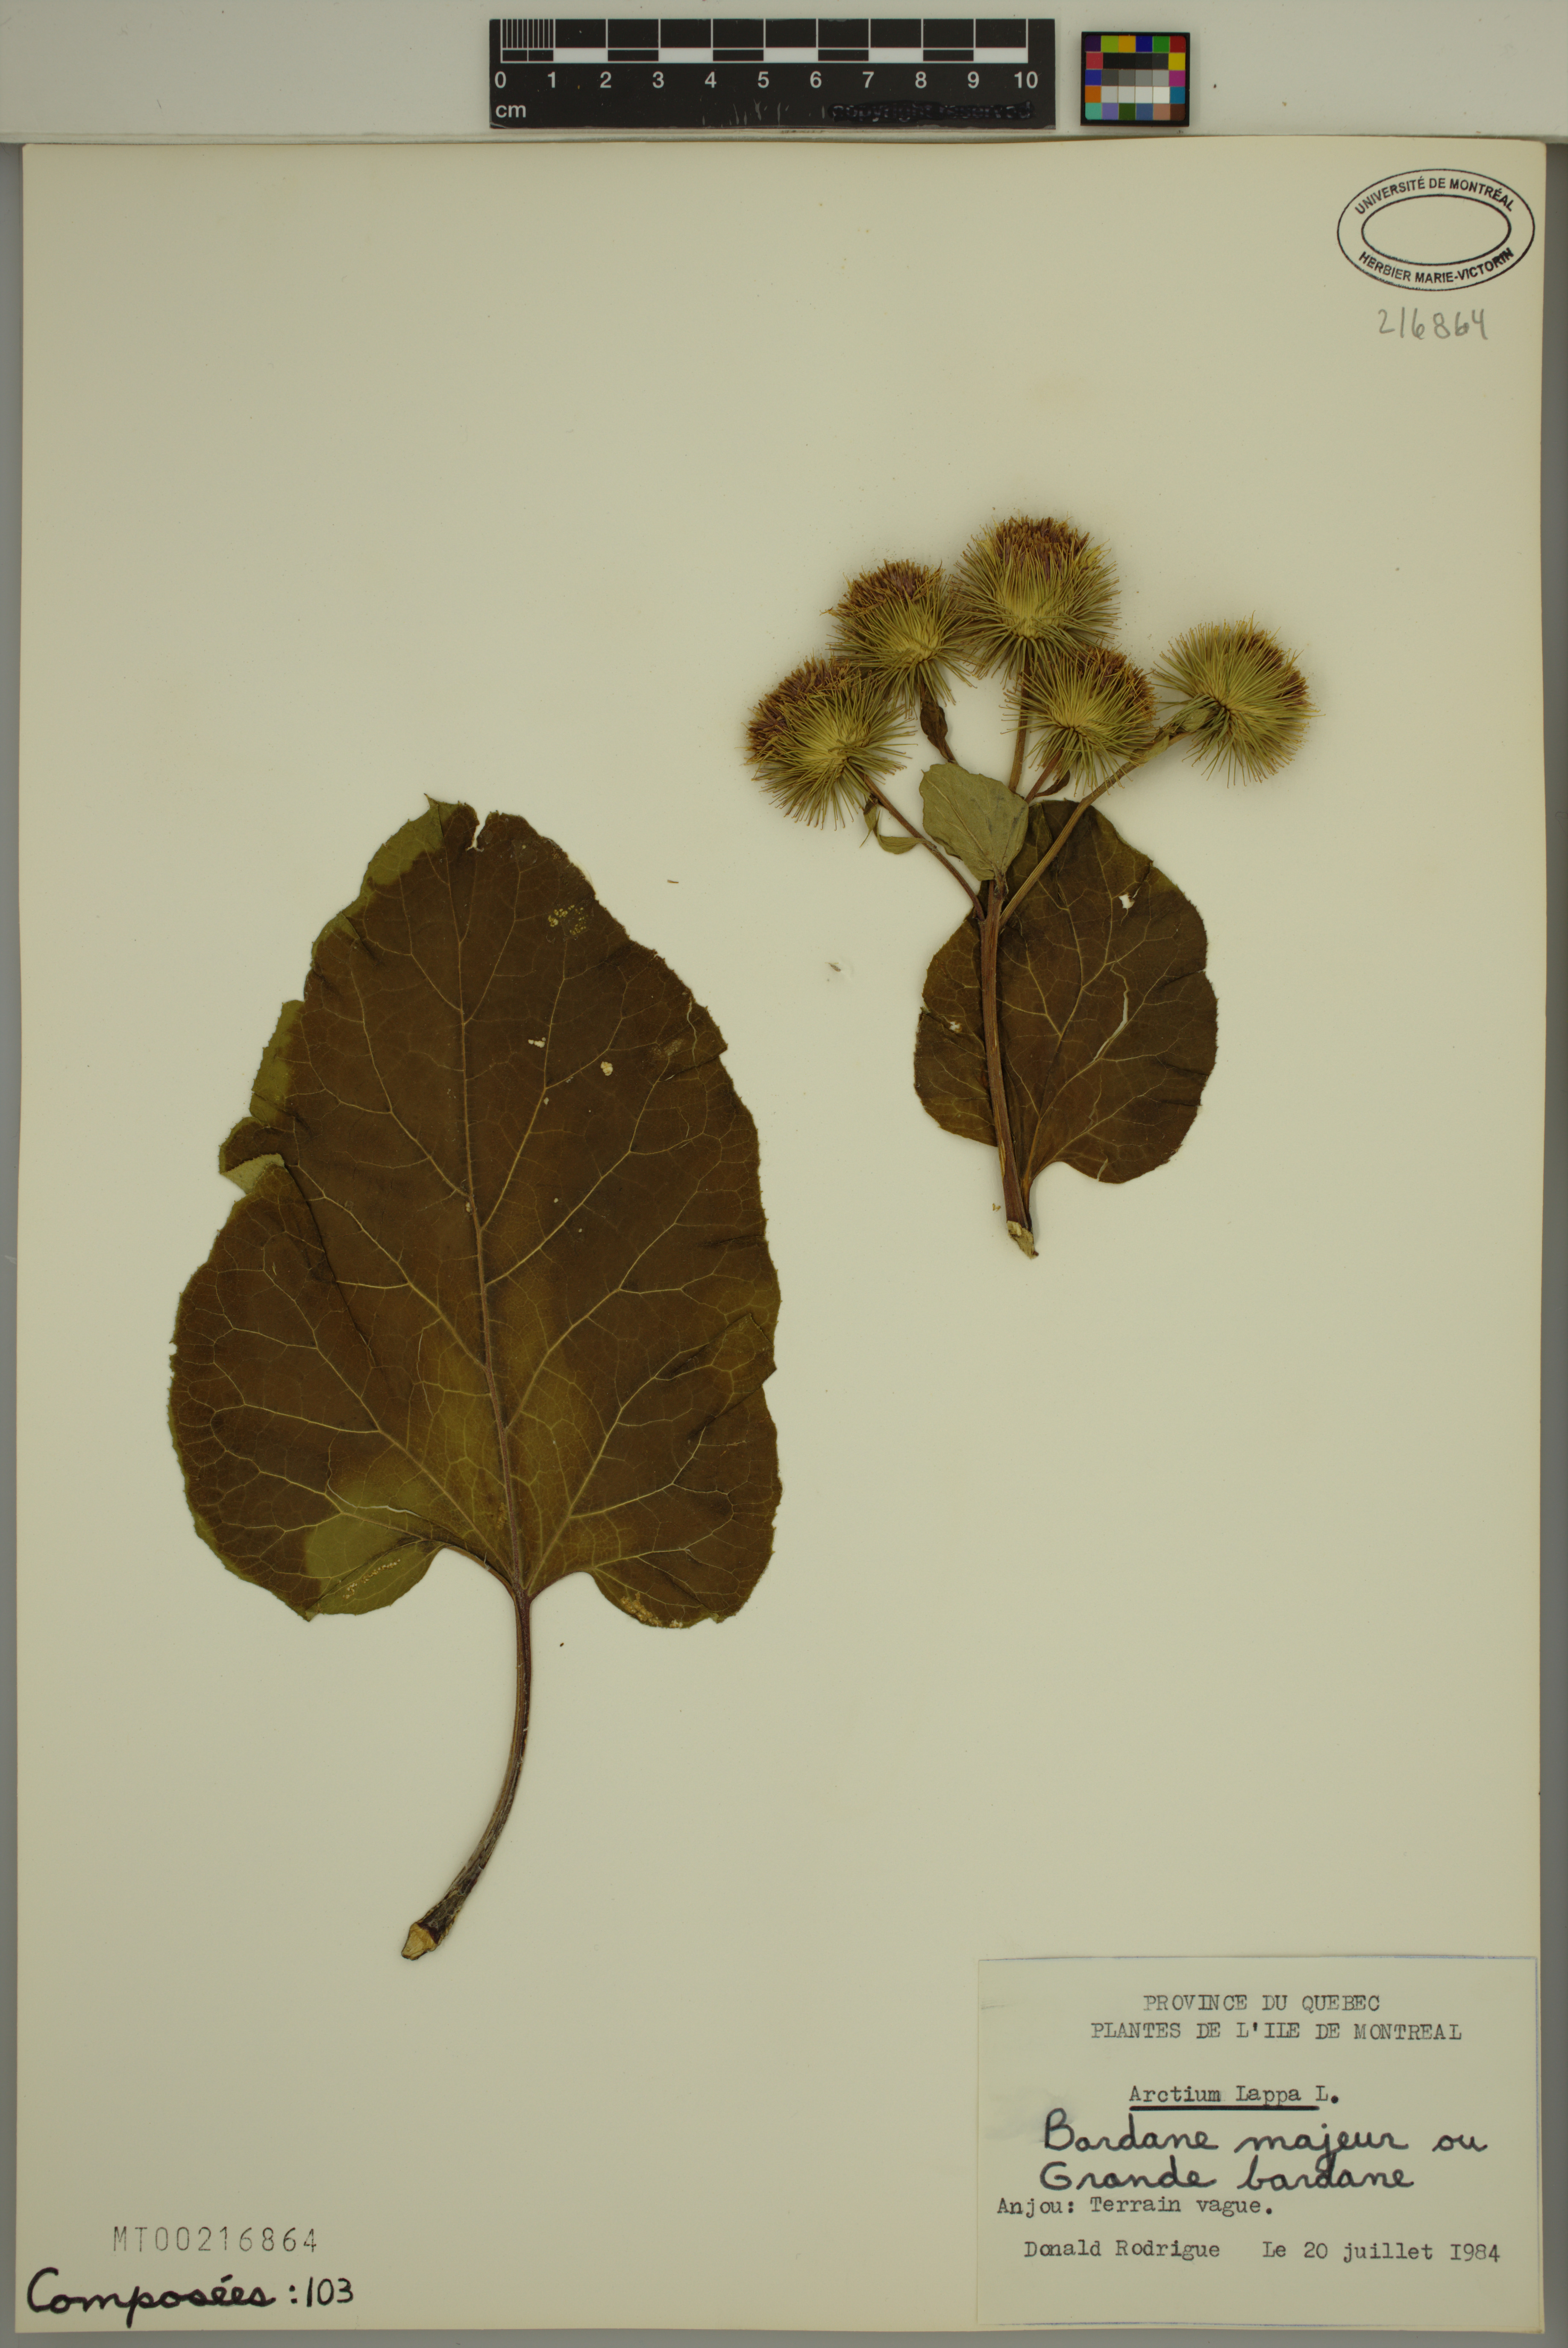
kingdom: Plantae
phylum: Tracheophyta
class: Magnoliopsida
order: Asterales
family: Asteraceae
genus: Arctium
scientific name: Arctium lappa
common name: Greater burdock
